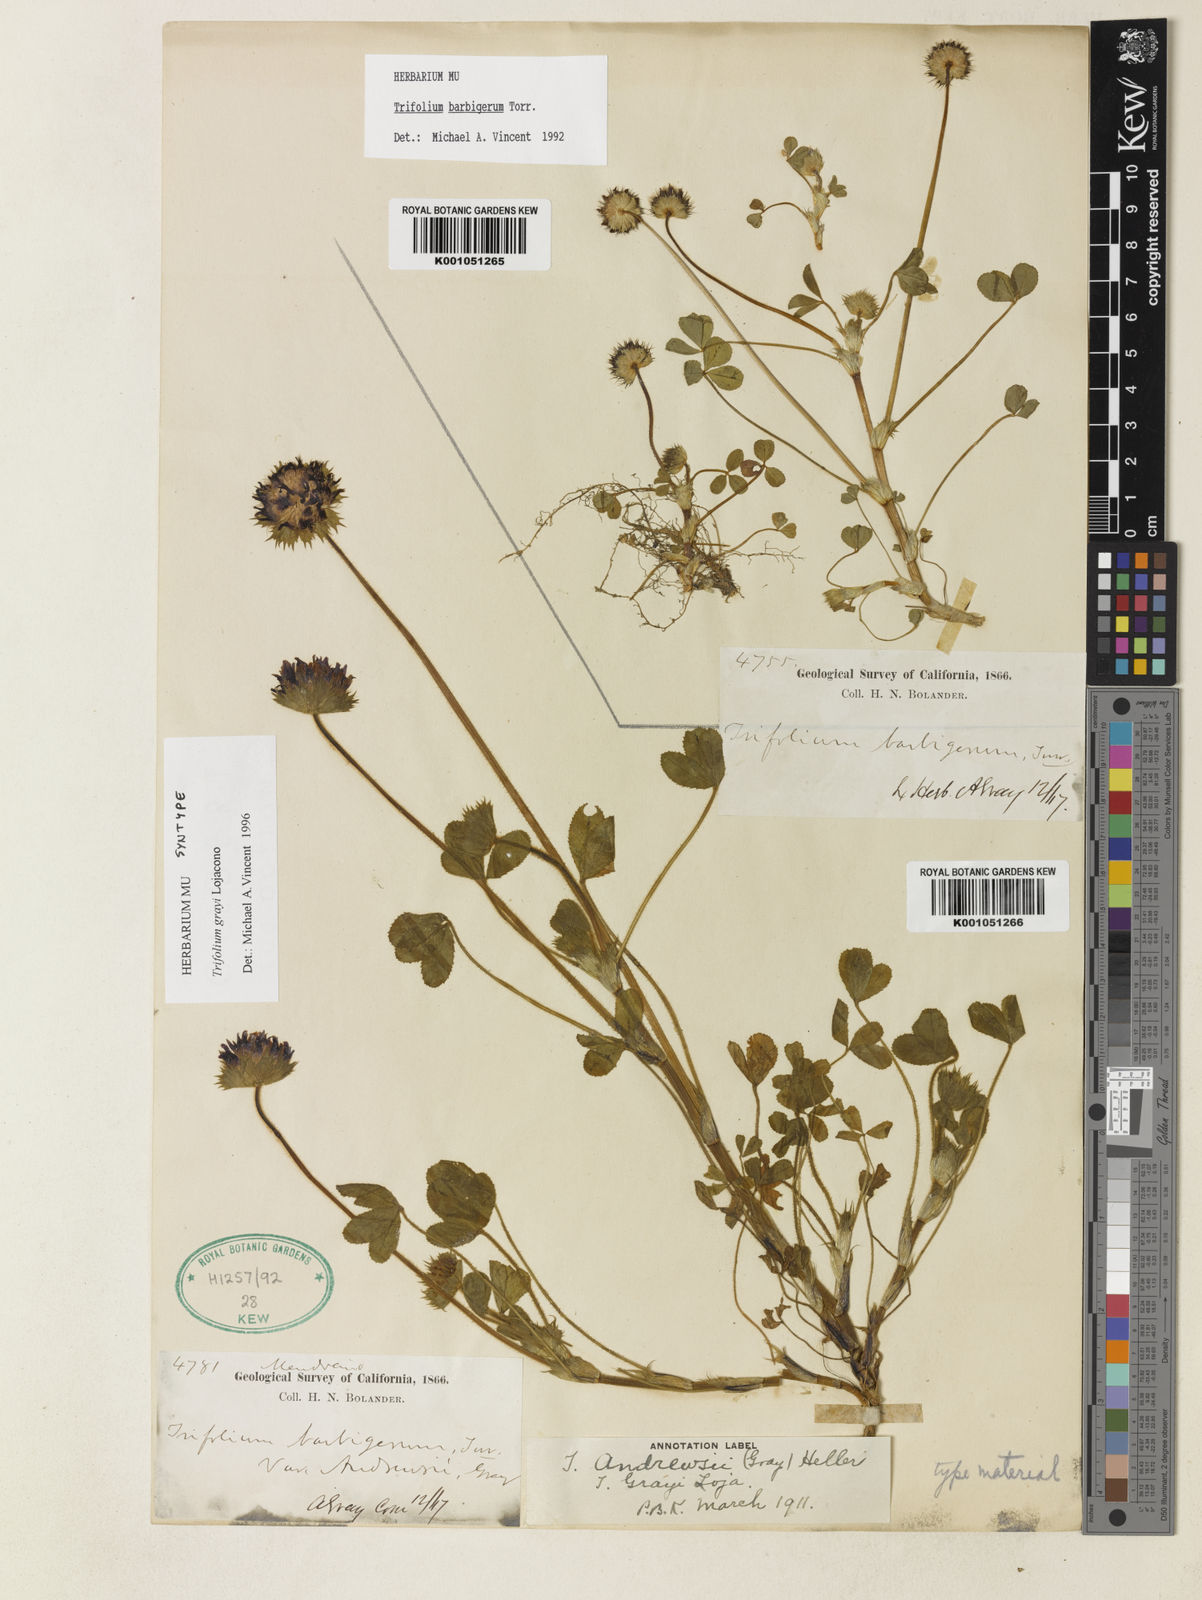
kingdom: Plantae
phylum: Tracheophyta
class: Magnoliopsida
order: Fabales
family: Fabaceae
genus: Trifolium
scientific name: Trifolium barbigerum
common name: Bearded clover
